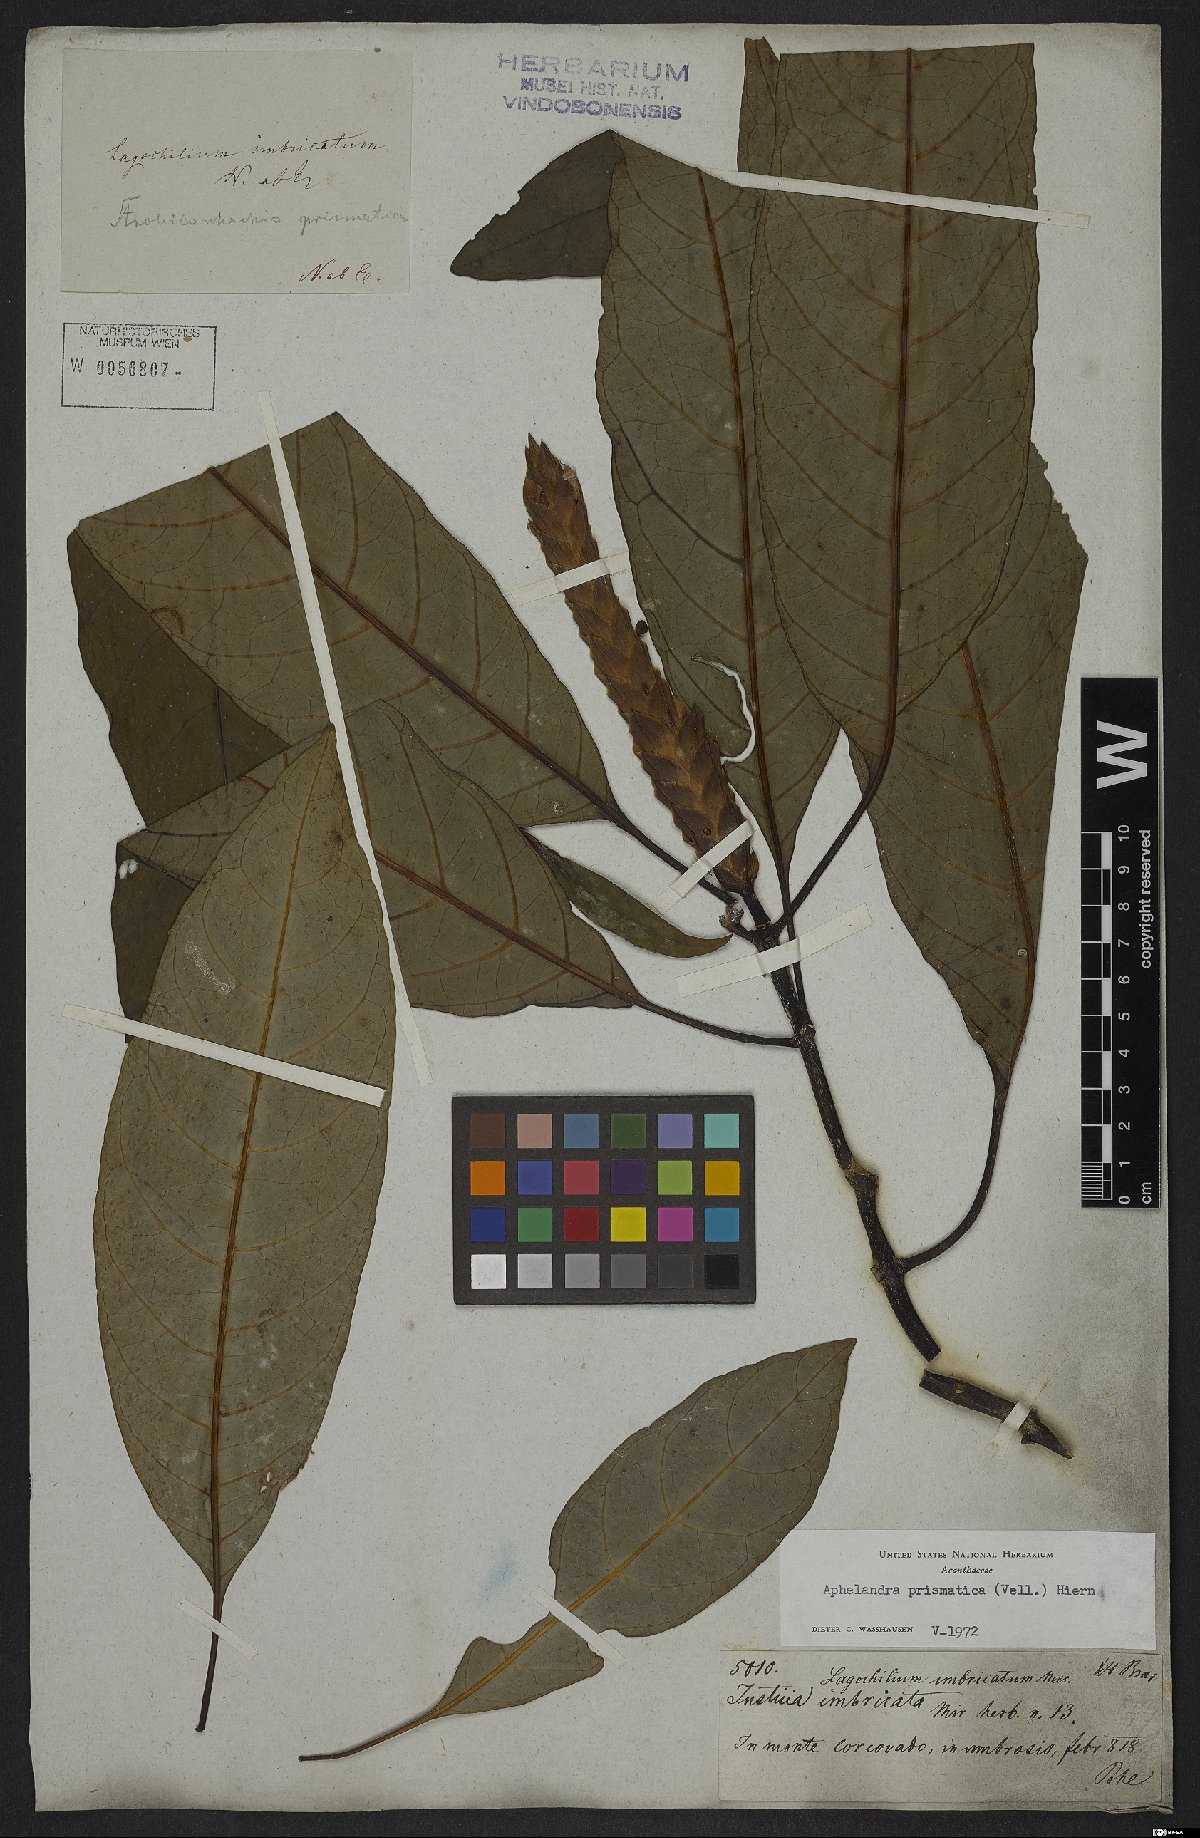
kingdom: Plantae
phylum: Tracheophyta
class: Magnoliopsida
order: Lamiales
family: Acanthaceae
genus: Aphelandra
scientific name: Aphelandra prismatica
